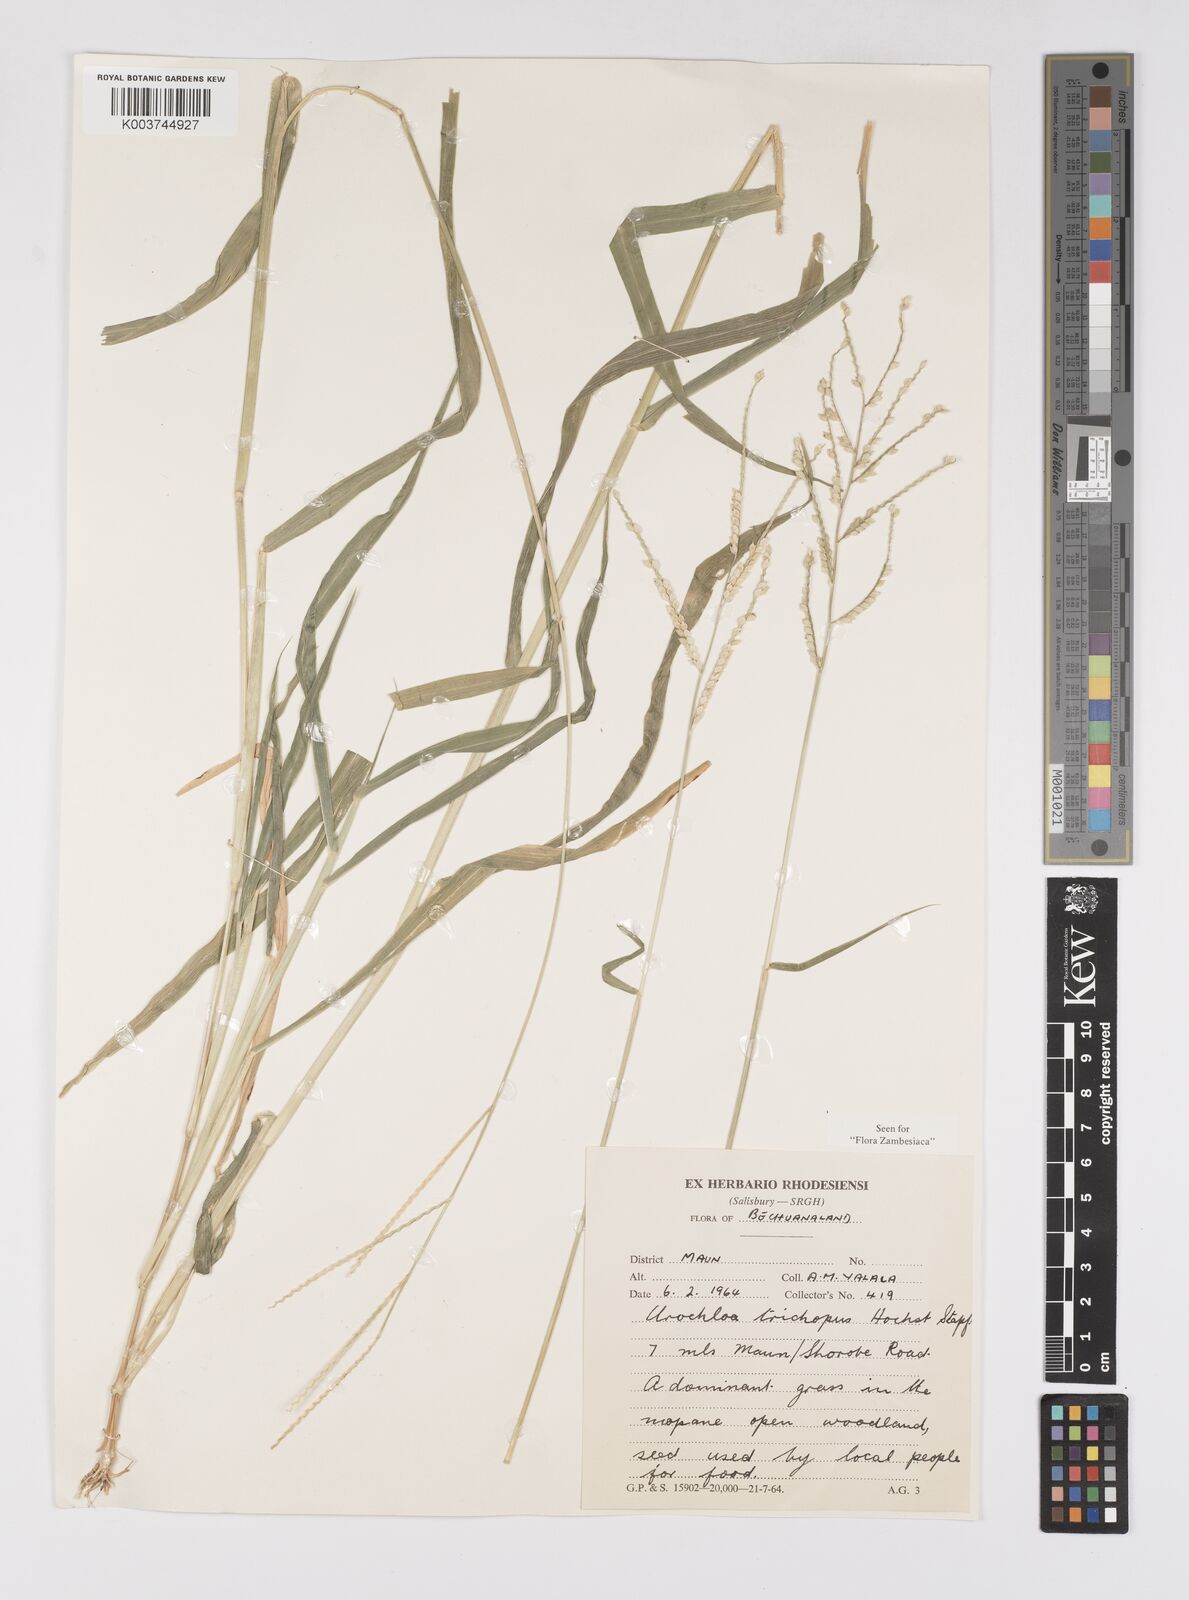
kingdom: Plantae
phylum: Tracheophyta
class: Liliopsida
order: Poales
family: Poaceae
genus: Urochloa
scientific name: Urochloa trichopus
